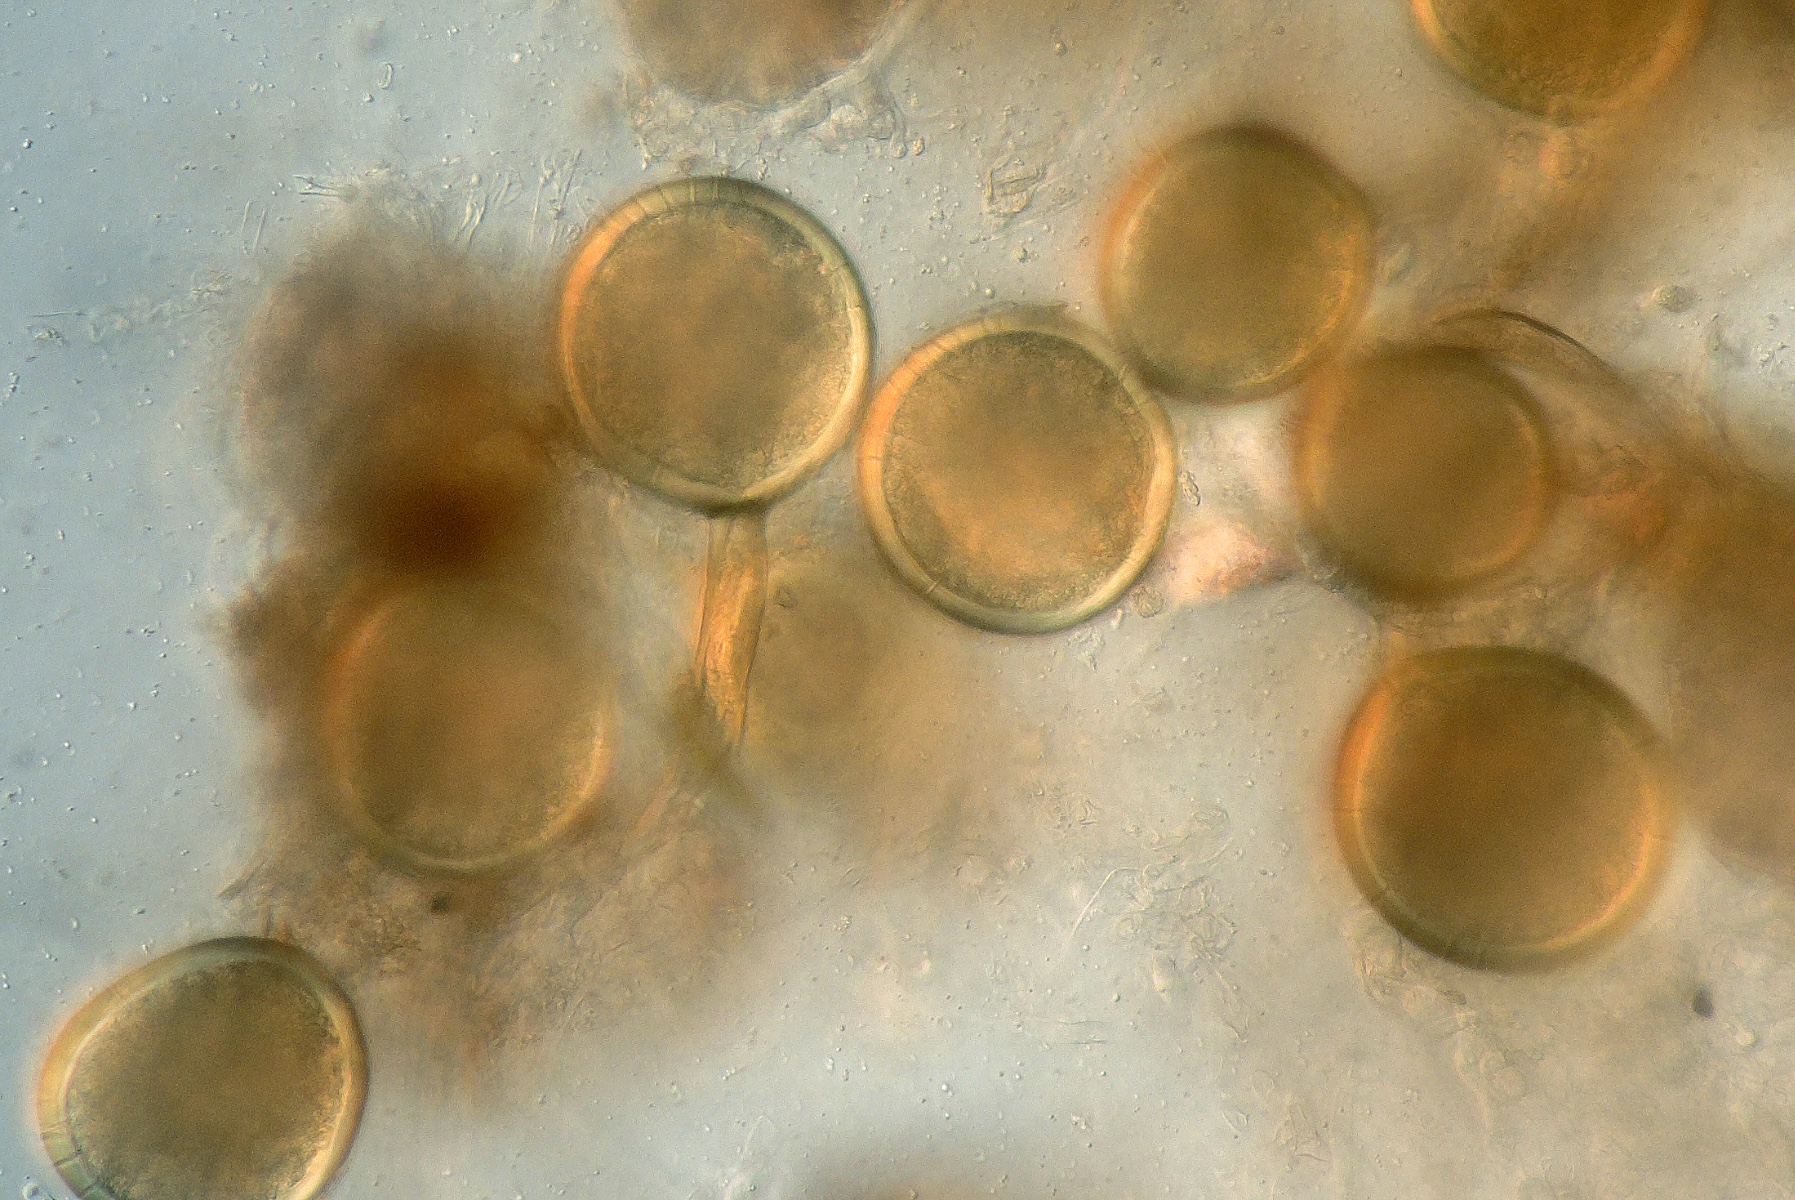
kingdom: Fungi
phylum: Glomeromycota
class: Glomeromycetes
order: Glomerales
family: Glomeraceae
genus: Glomus
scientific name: Glomus macrocarpum
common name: knoldet arbuskelsvamp
